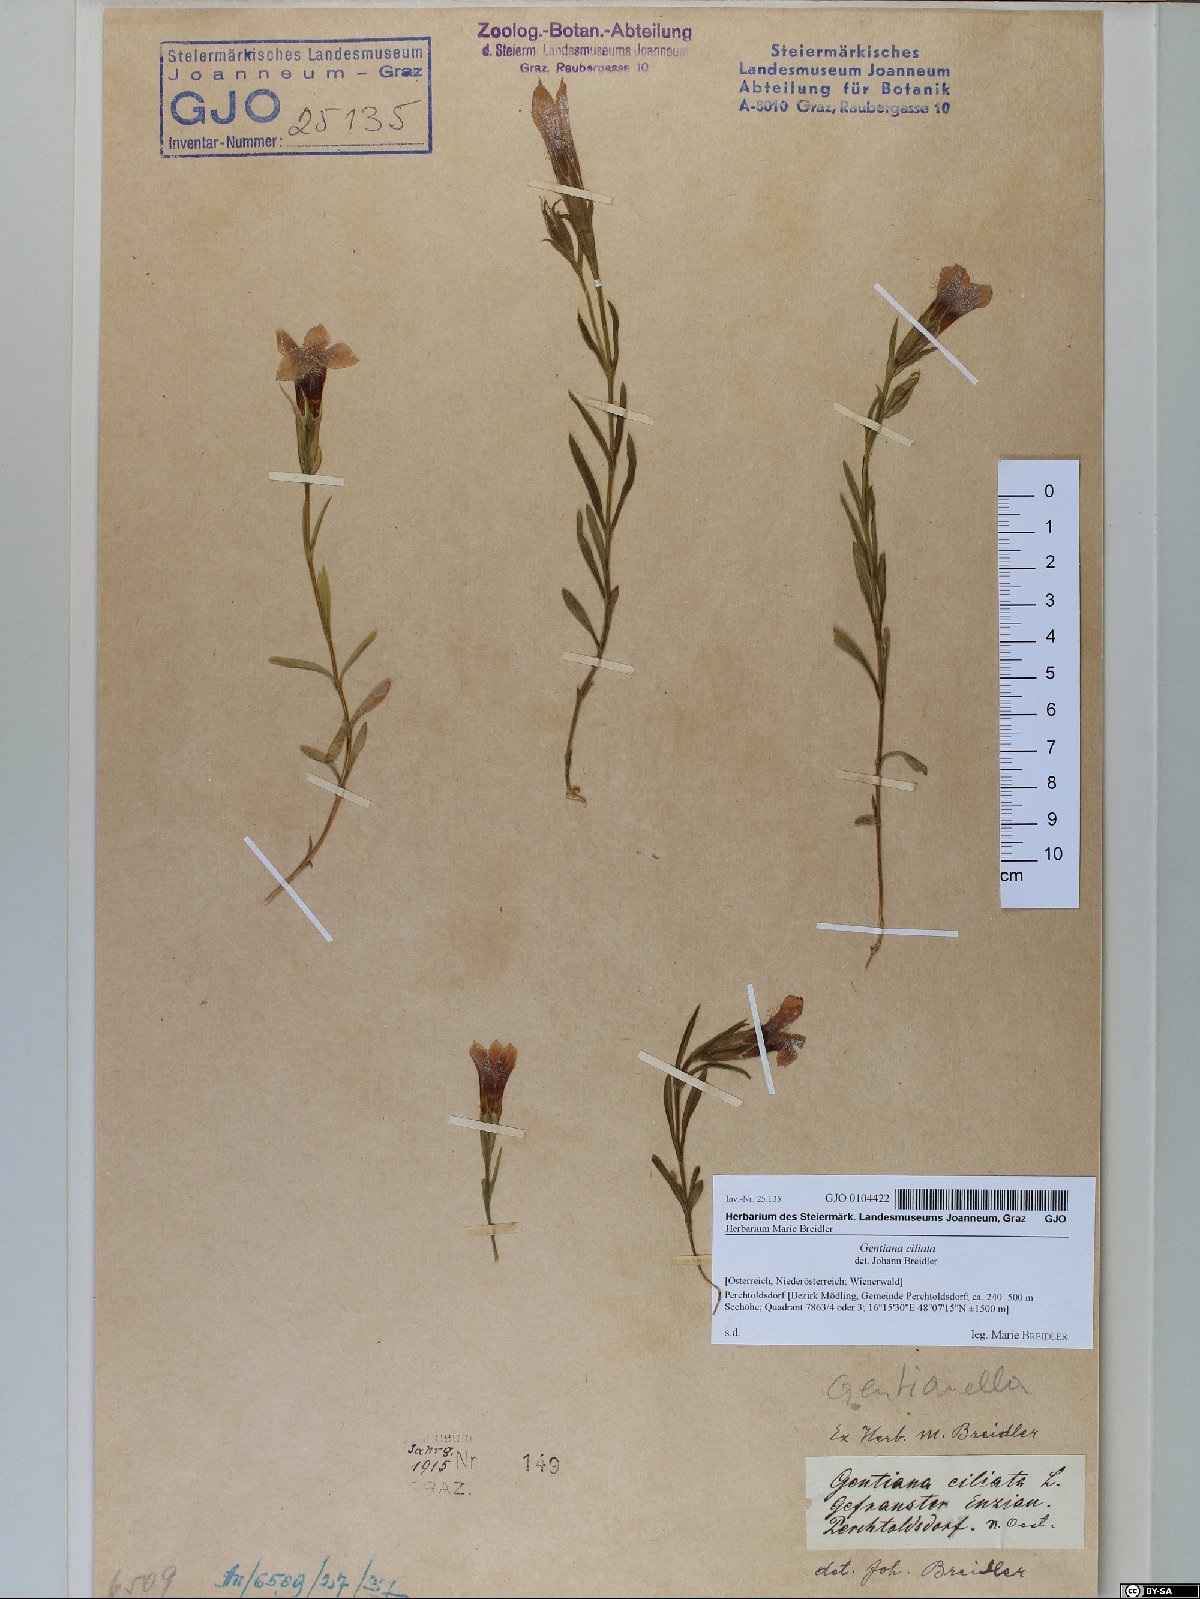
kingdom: Plantae
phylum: Tracheophyta
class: Magnoliopsida
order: Gentianales
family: Gentianaceae
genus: Gentianopsis
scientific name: Gentianopsis ciliata
